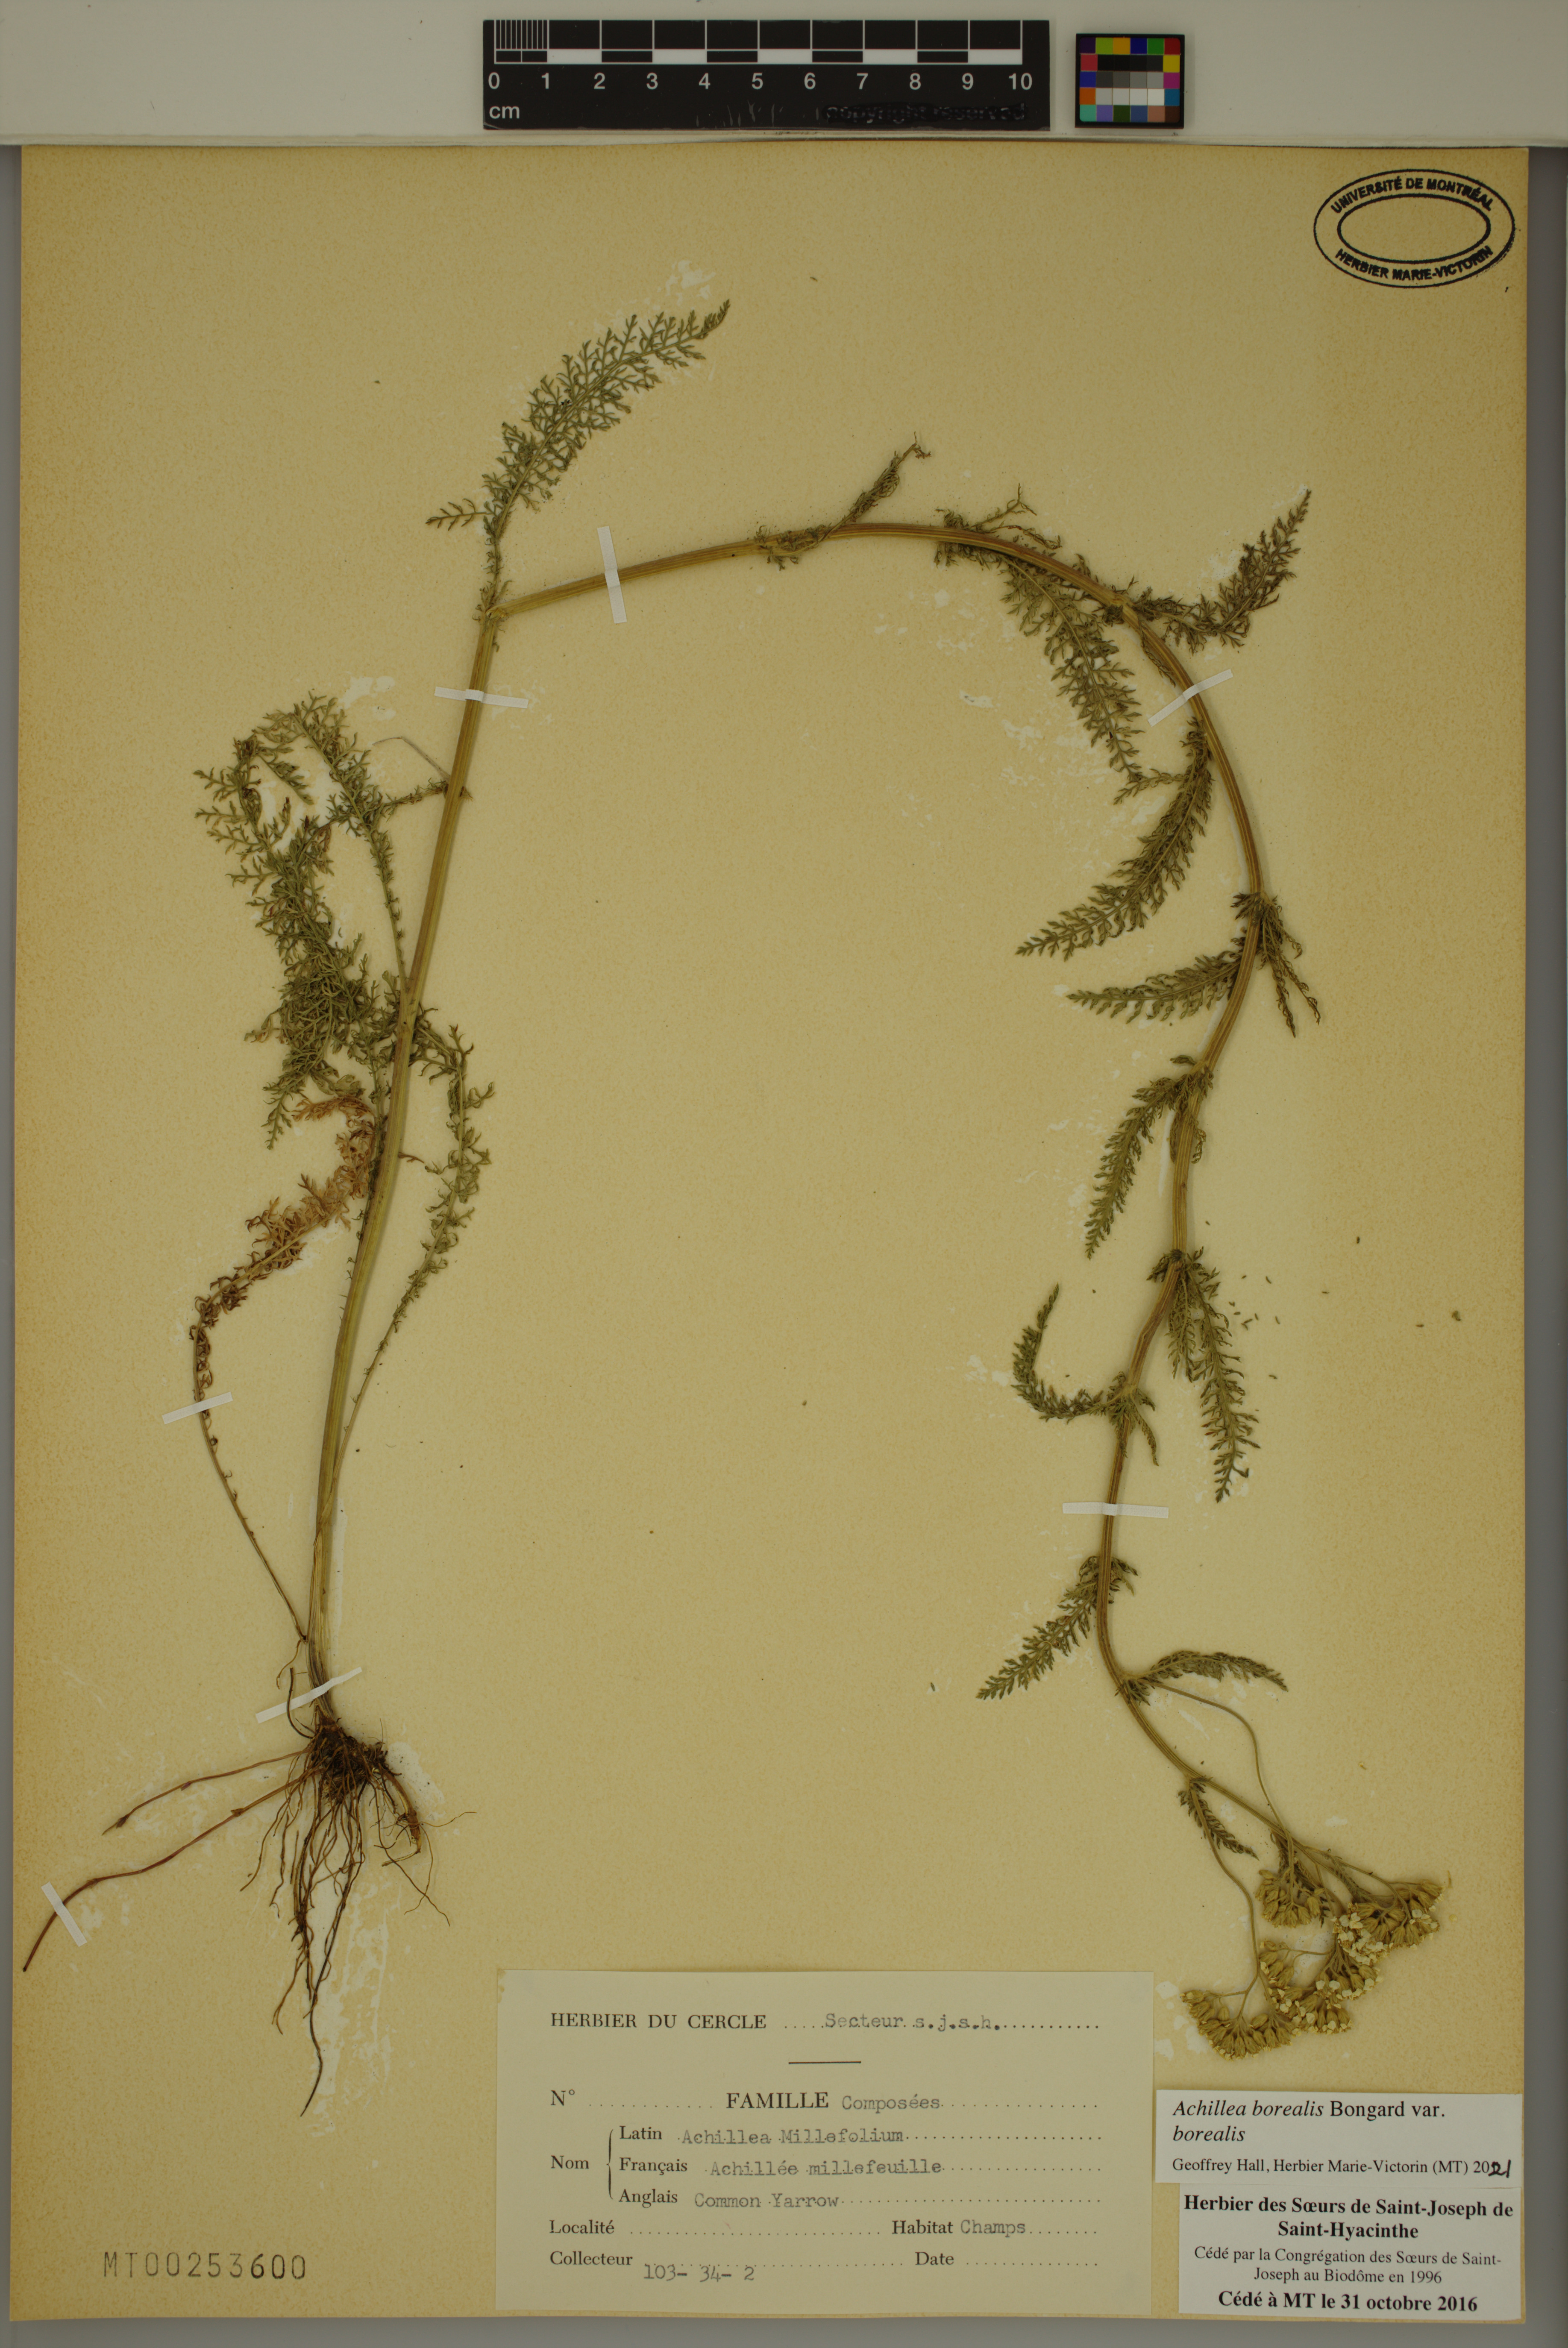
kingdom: Plantae
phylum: Tracheophyta
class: Magnoliopsida
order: Asterales
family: Asteraceae
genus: Achillea
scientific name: Achillea millefolium
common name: Yarrow
